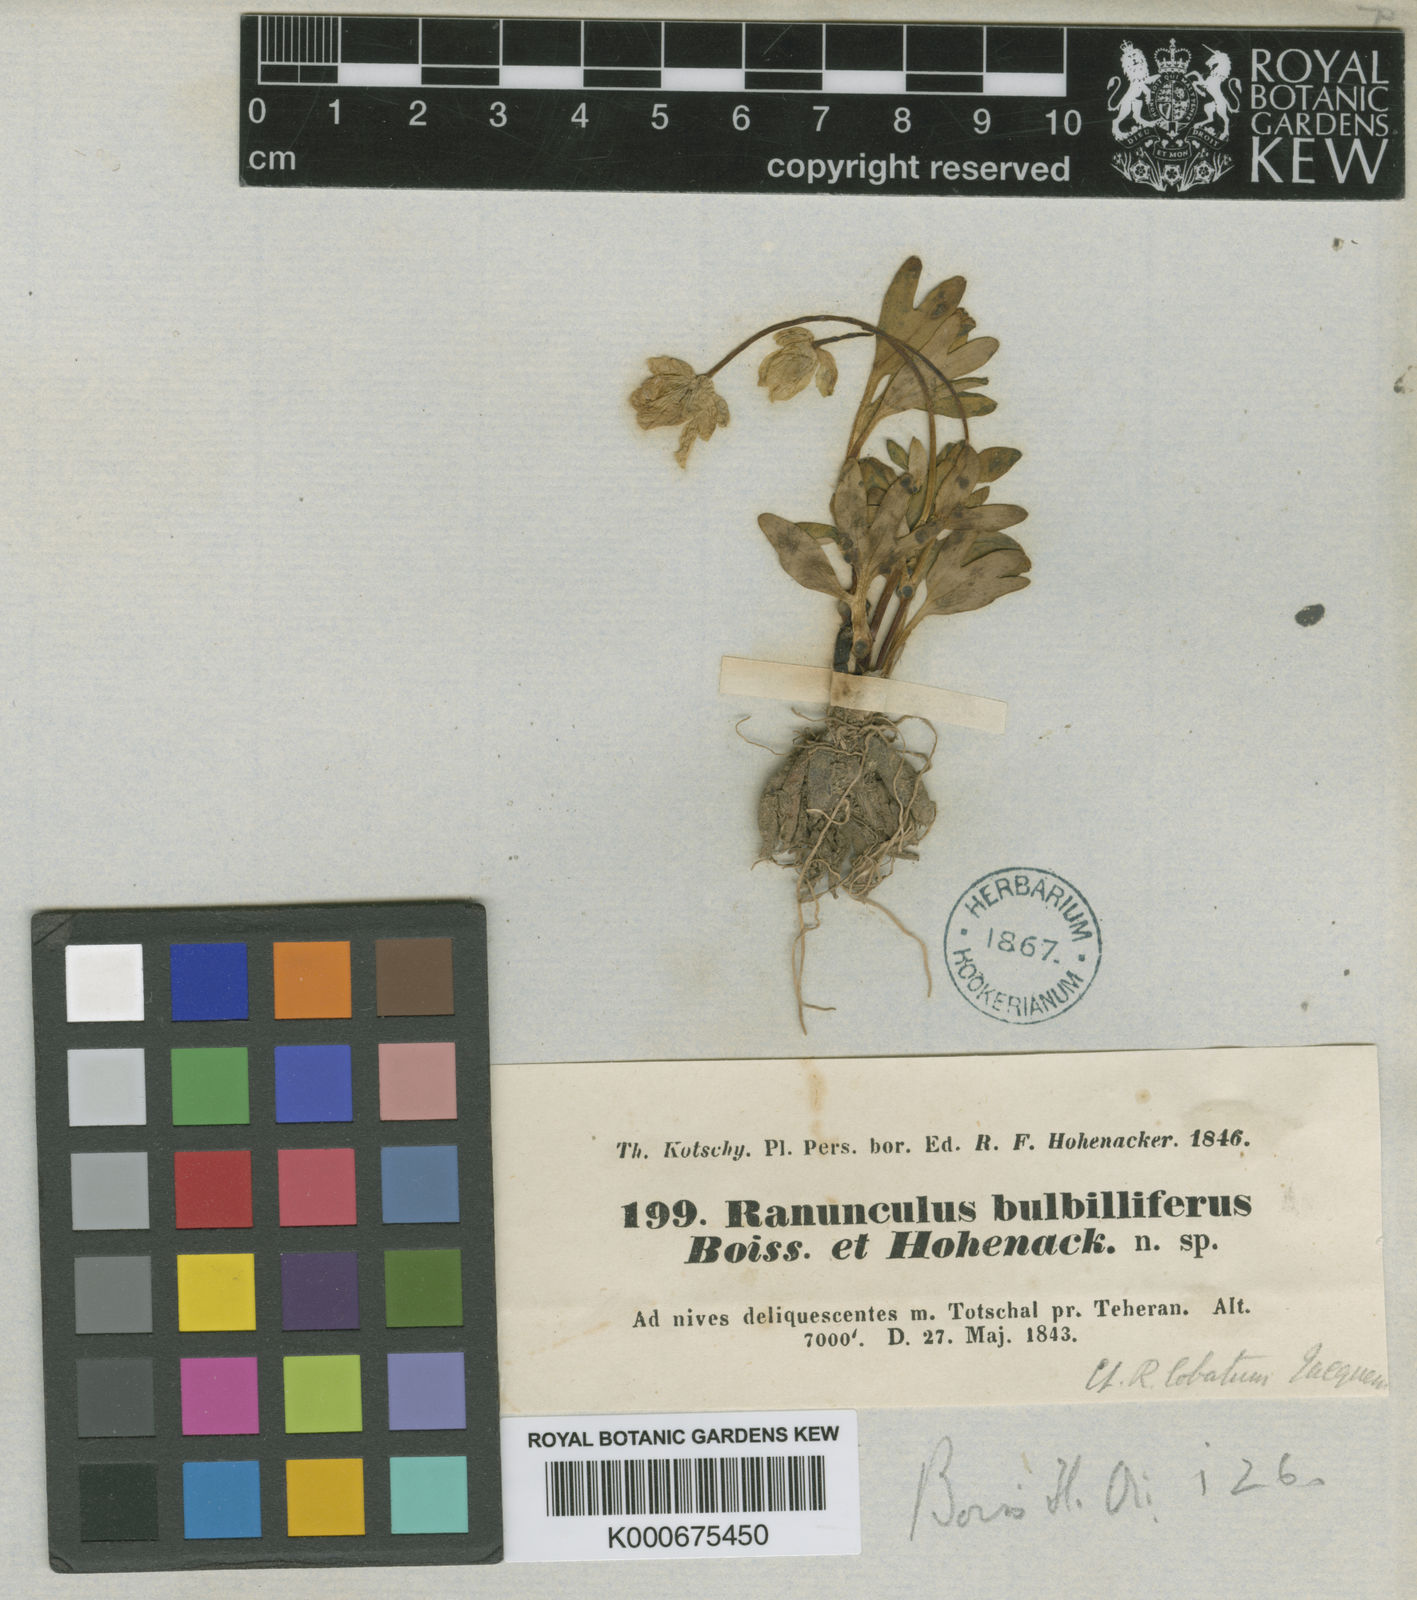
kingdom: Plantae
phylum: Tracheophyta
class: Magnoliopsida
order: Ranunculales
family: Ranunculaceae
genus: Ranunculus
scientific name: Ranunculus
